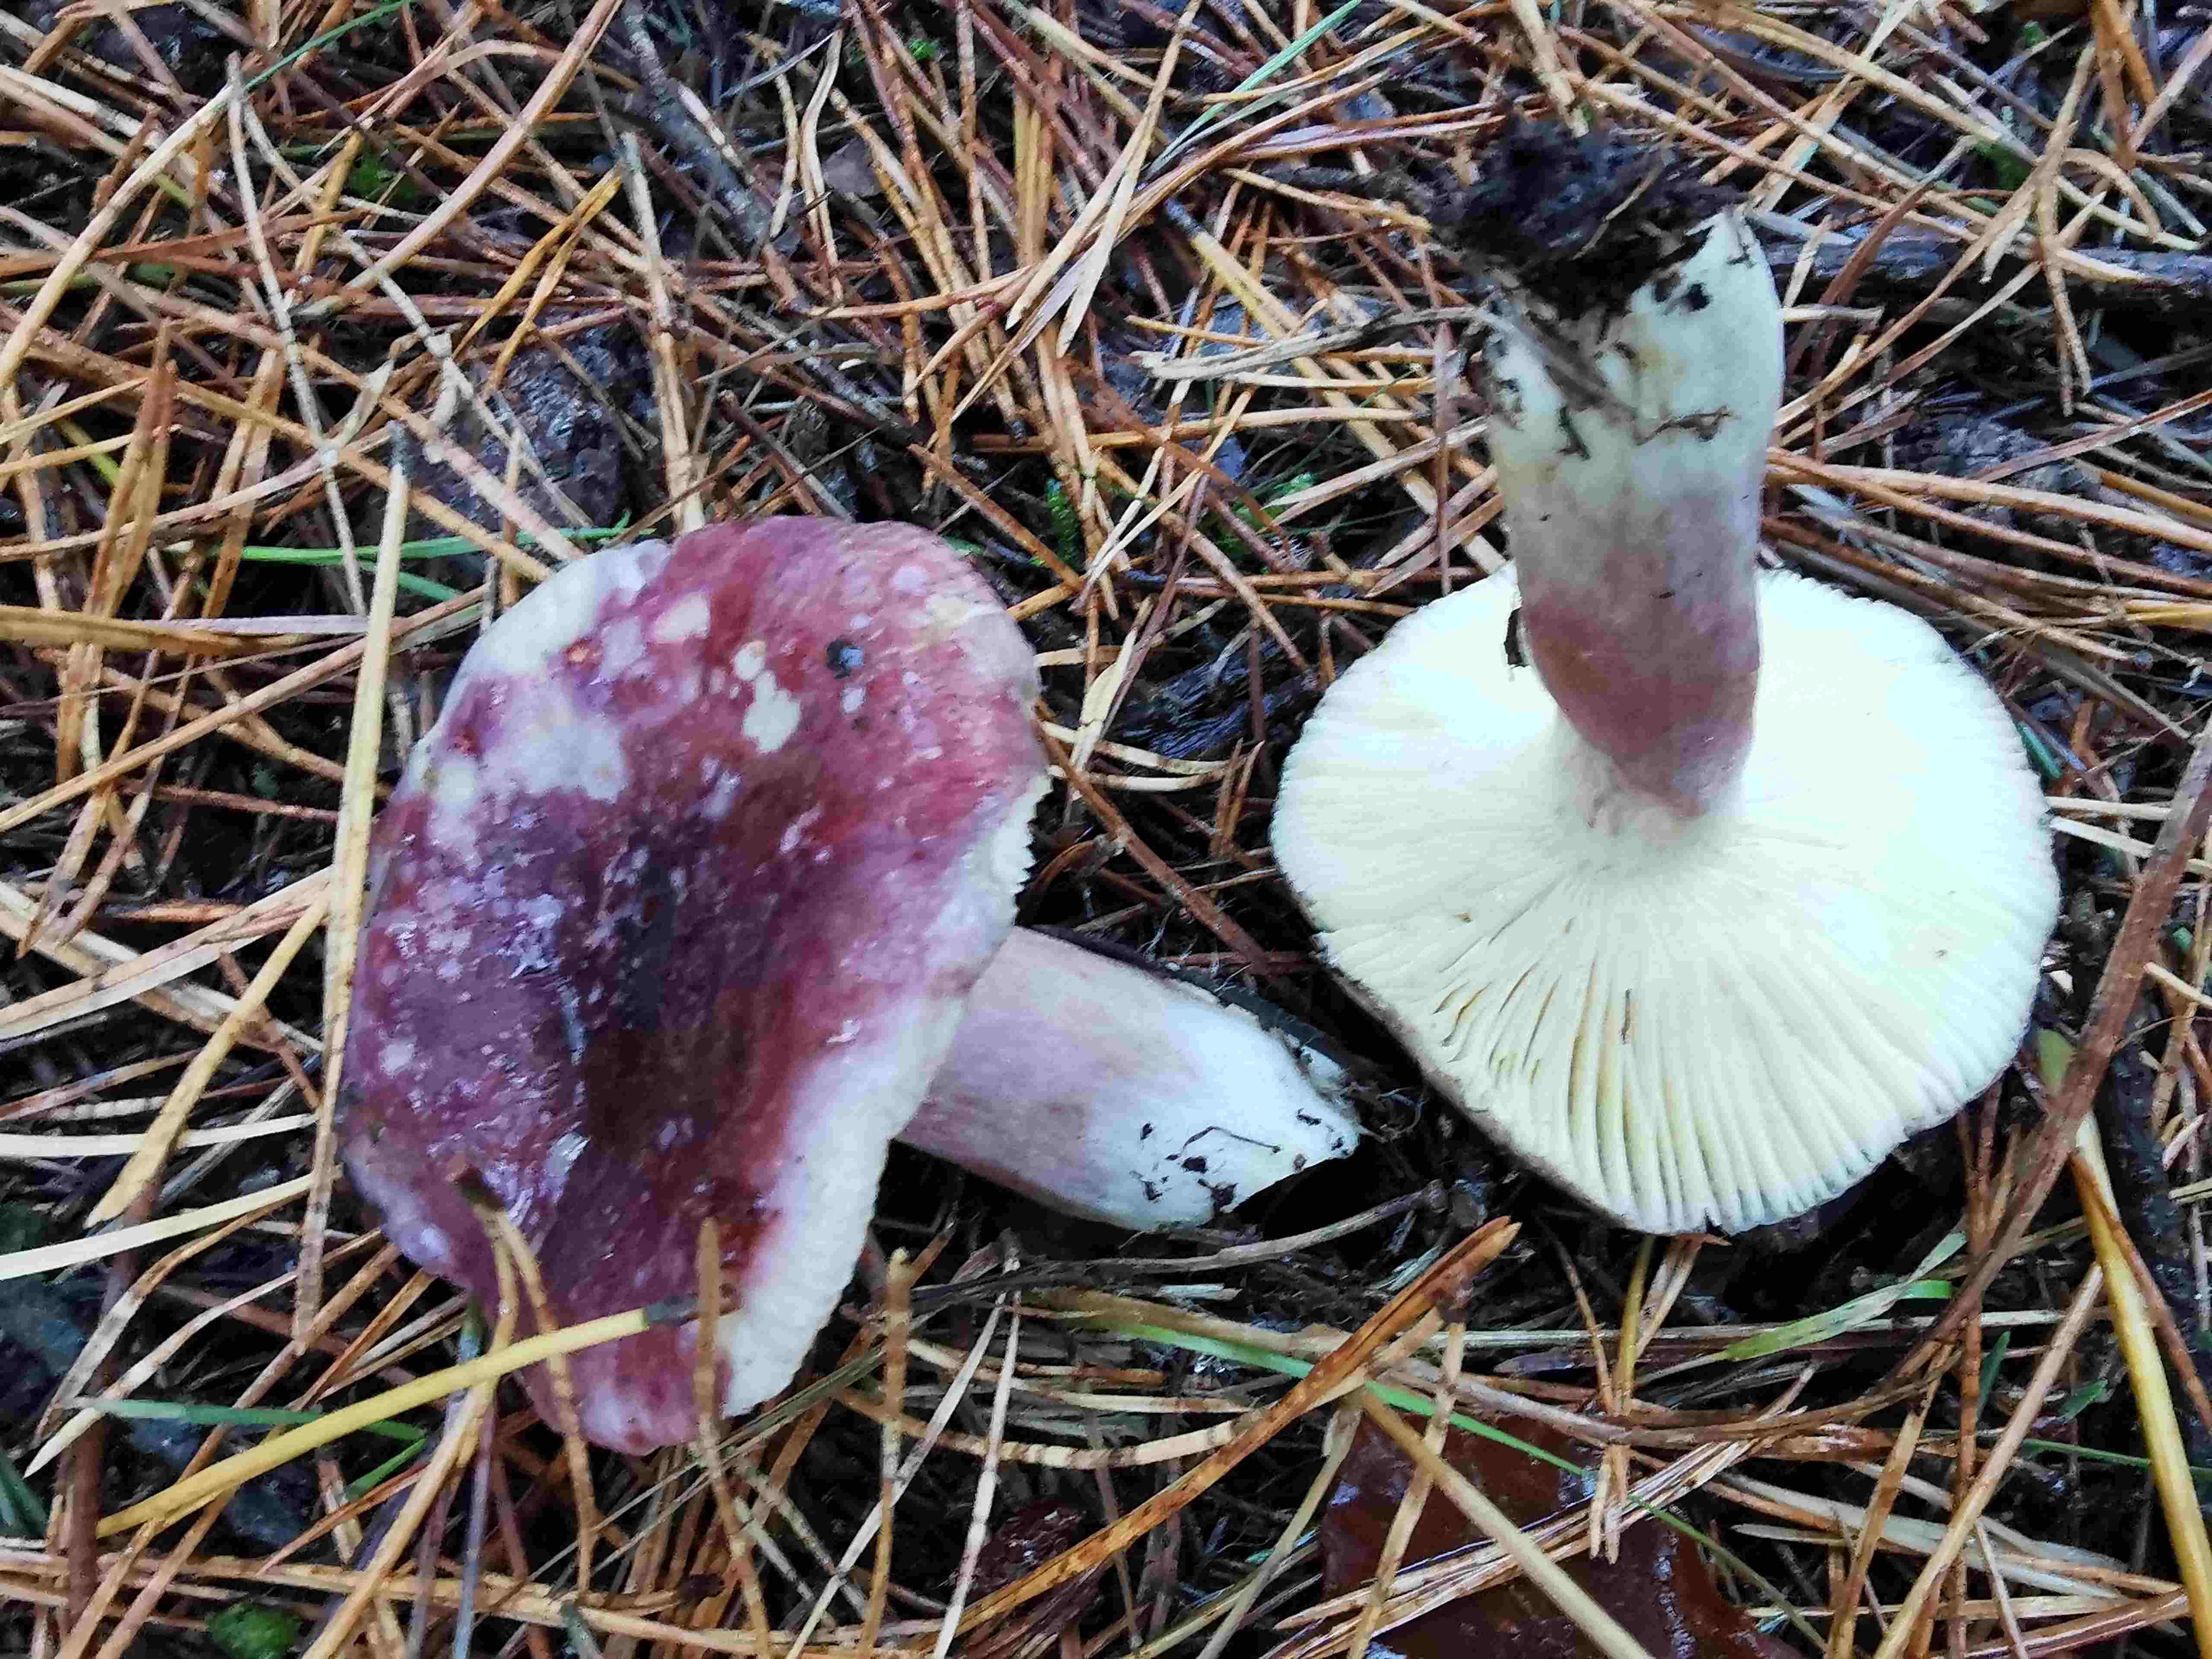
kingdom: Fungi
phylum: Basidiomycota
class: Agaricomycetes
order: Russulales
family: Russulaceae
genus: Russula
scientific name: Russula sardonia
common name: citronbladet skørhat
